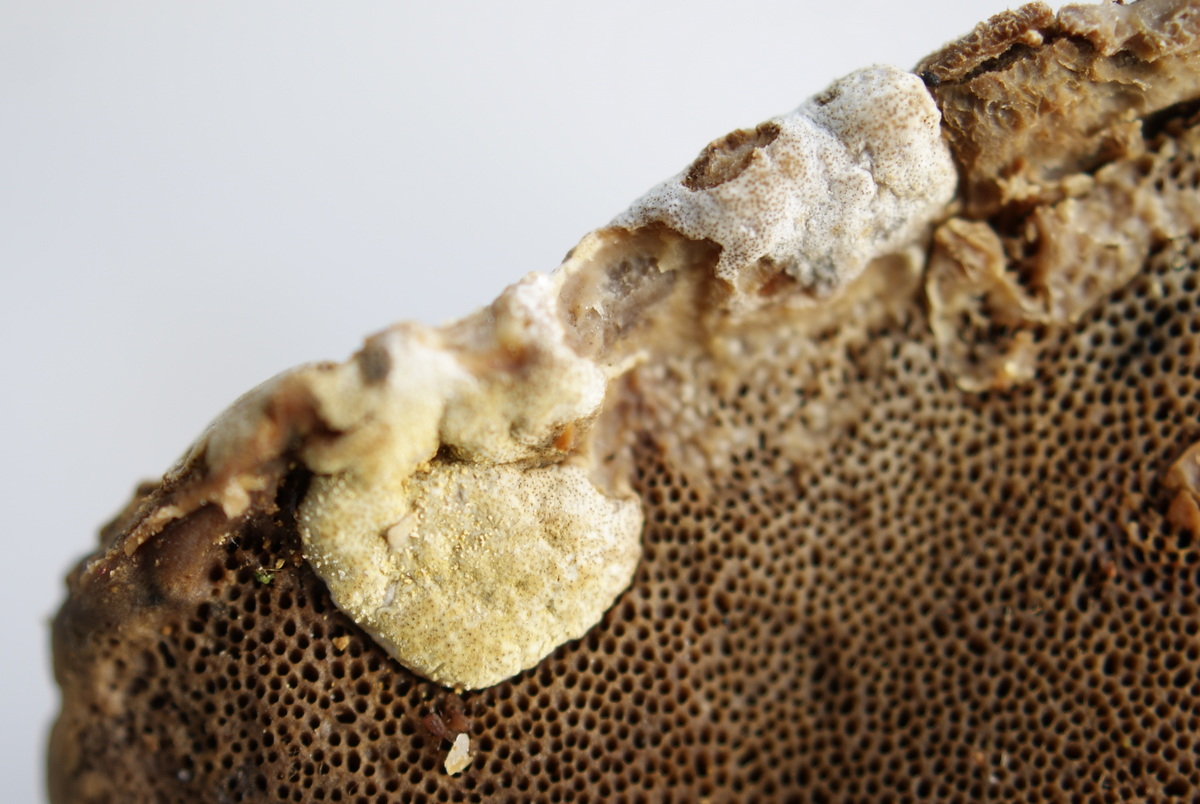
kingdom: Fungi
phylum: Ascomycota
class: Sordariomycetes
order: Hypocreales
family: Hypocreaceae
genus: Trichoderma
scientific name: Trichoderma pulvinatum
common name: snyltende kødkerne
